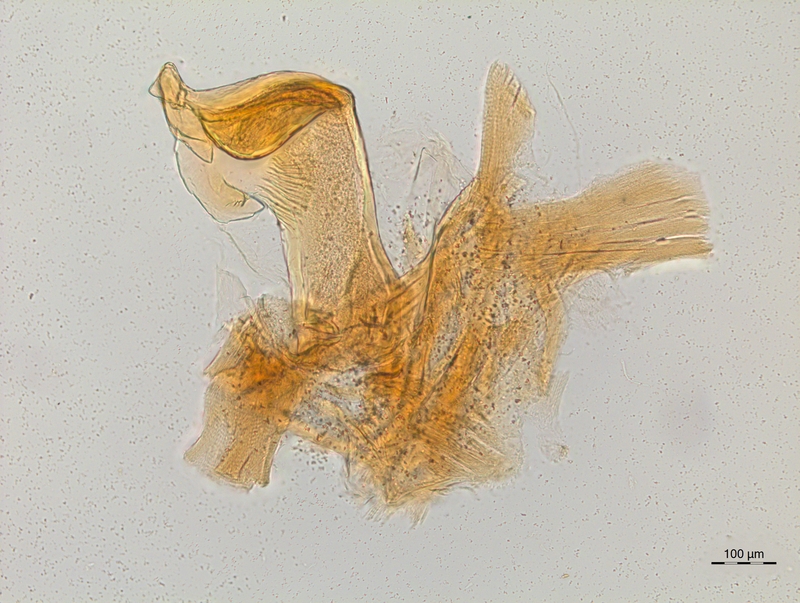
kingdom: Animalia
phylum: Arthropoda
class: Diplopoda
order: Chordeumatida
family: Craspedosomatidae
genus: Craspedosoma
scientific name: Craspedosoma rawlinsii
